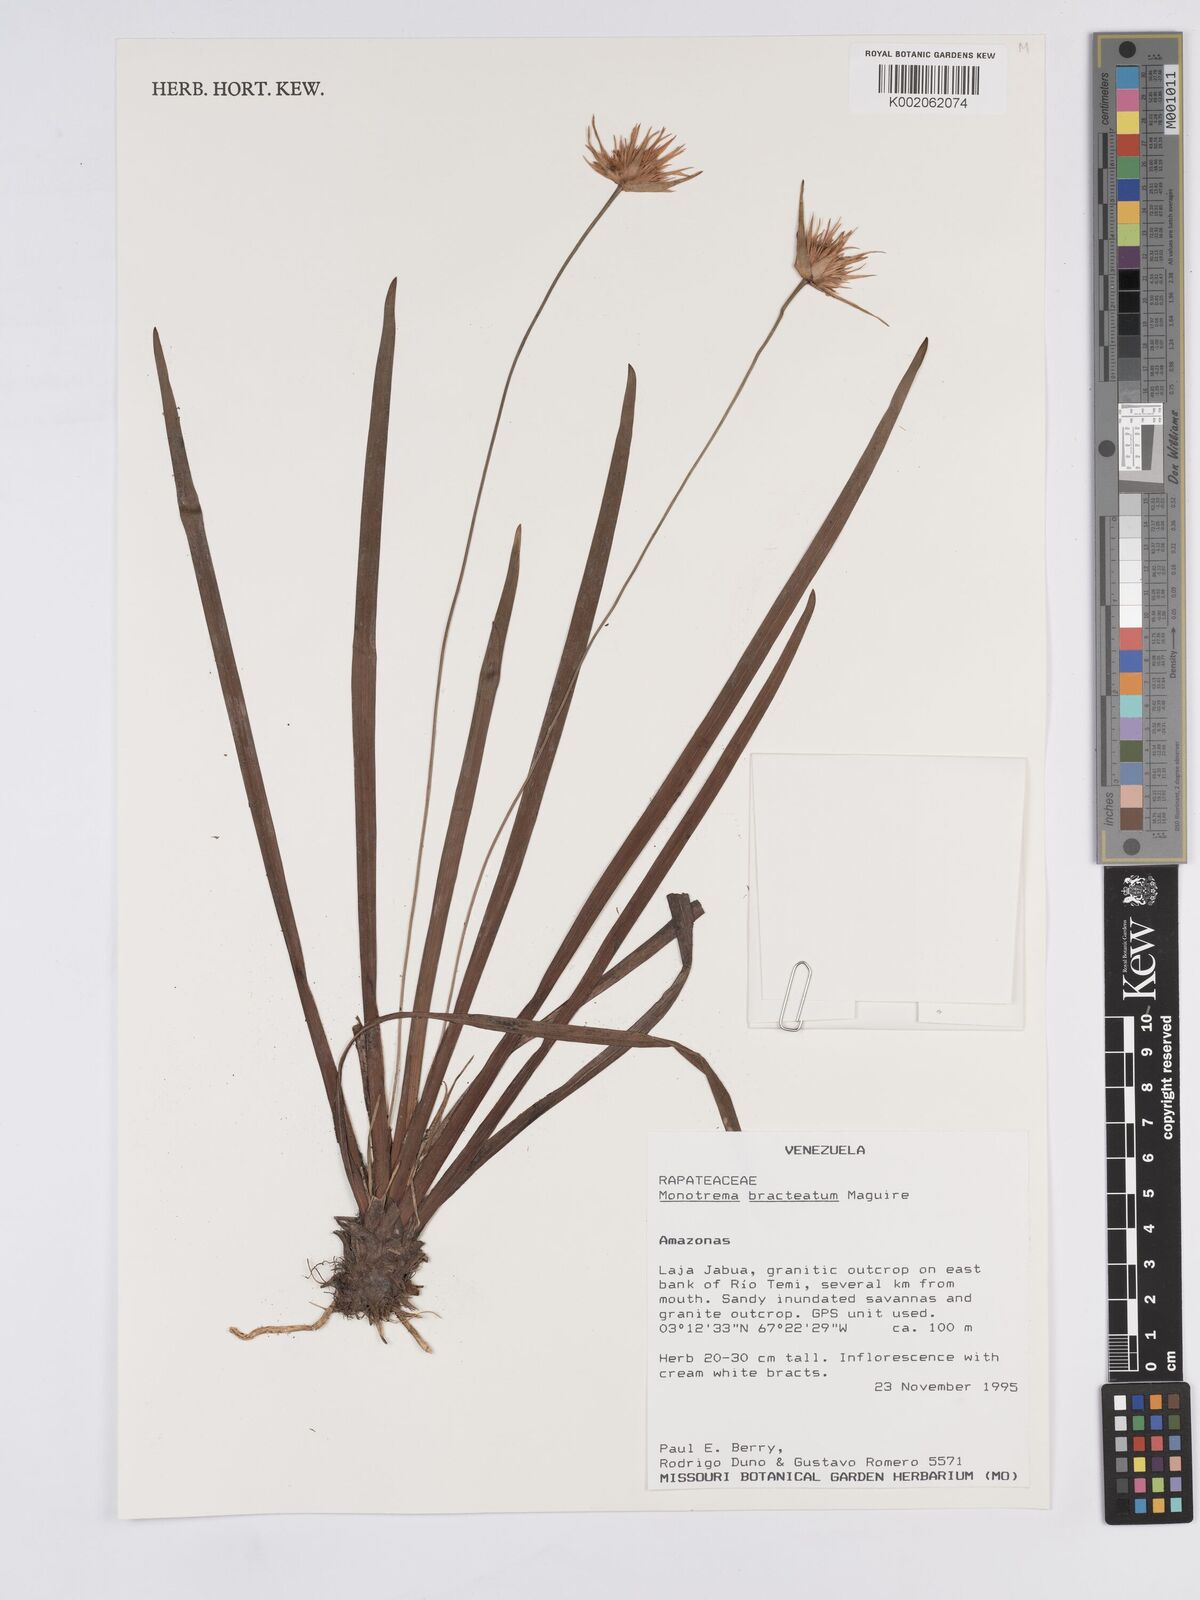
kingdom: Plantae
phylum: Tracheophyta
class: Liliopsida
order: Poales
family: Rapateaceae
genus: Monotrema
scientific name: Monotrema bracteatum
